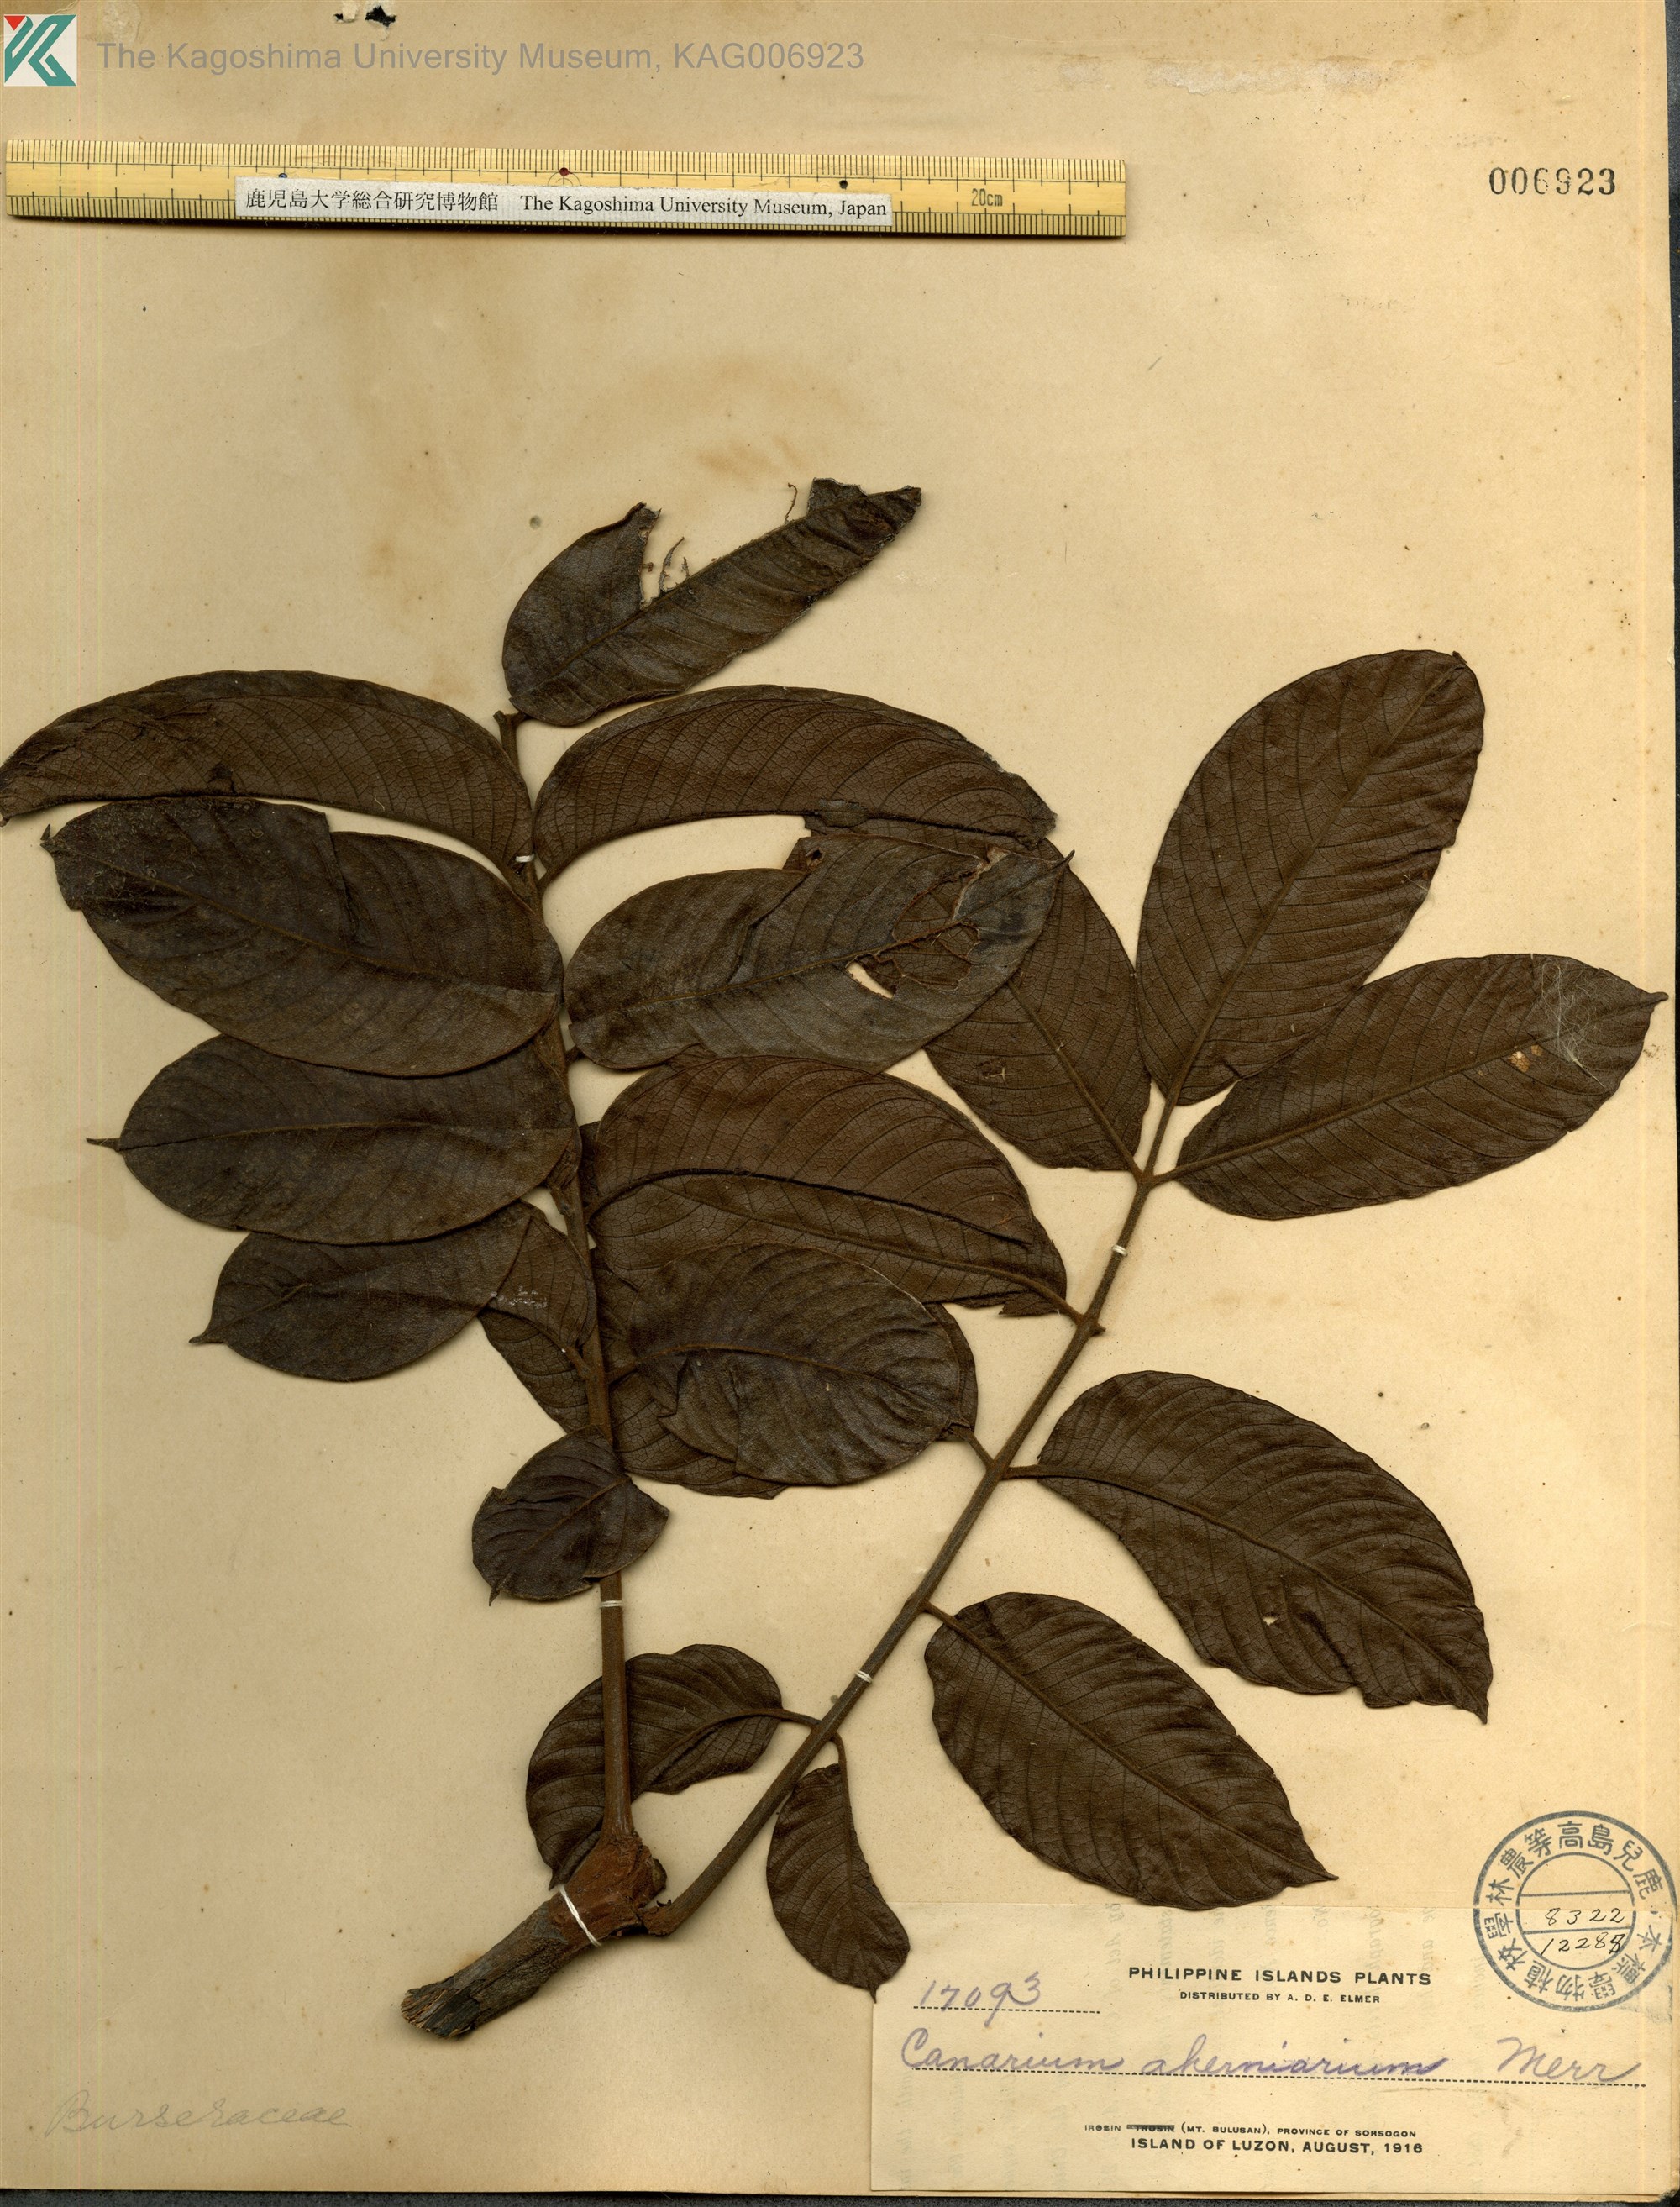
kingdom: Plantae
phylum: Tracheophyta
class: Magnoliopsida
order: Sapindales
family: Burseraceae
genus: Canarium
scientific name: Canarium hirsutum
